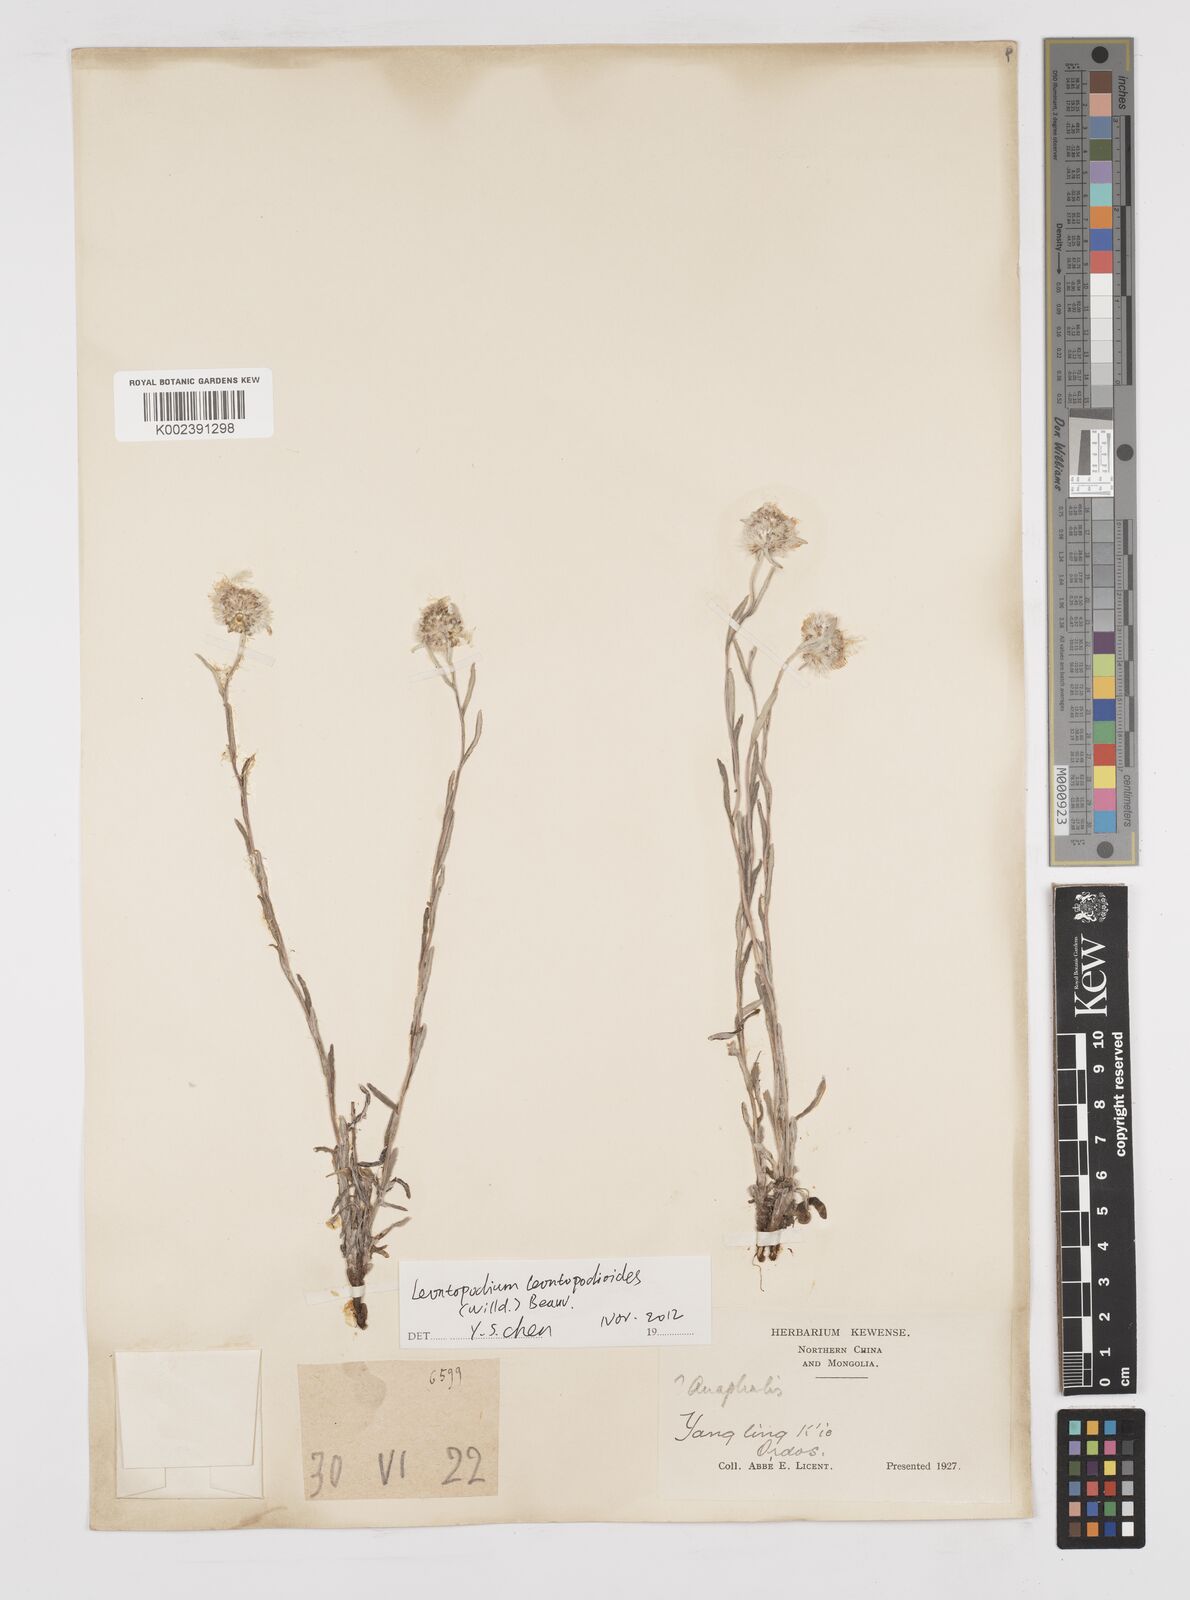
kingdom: Plantae
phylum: Tracheophyta
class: Magnoliopsida
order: Asterales
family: Asteraceae
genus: Anaphalis
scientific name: Anaphalis sinica
